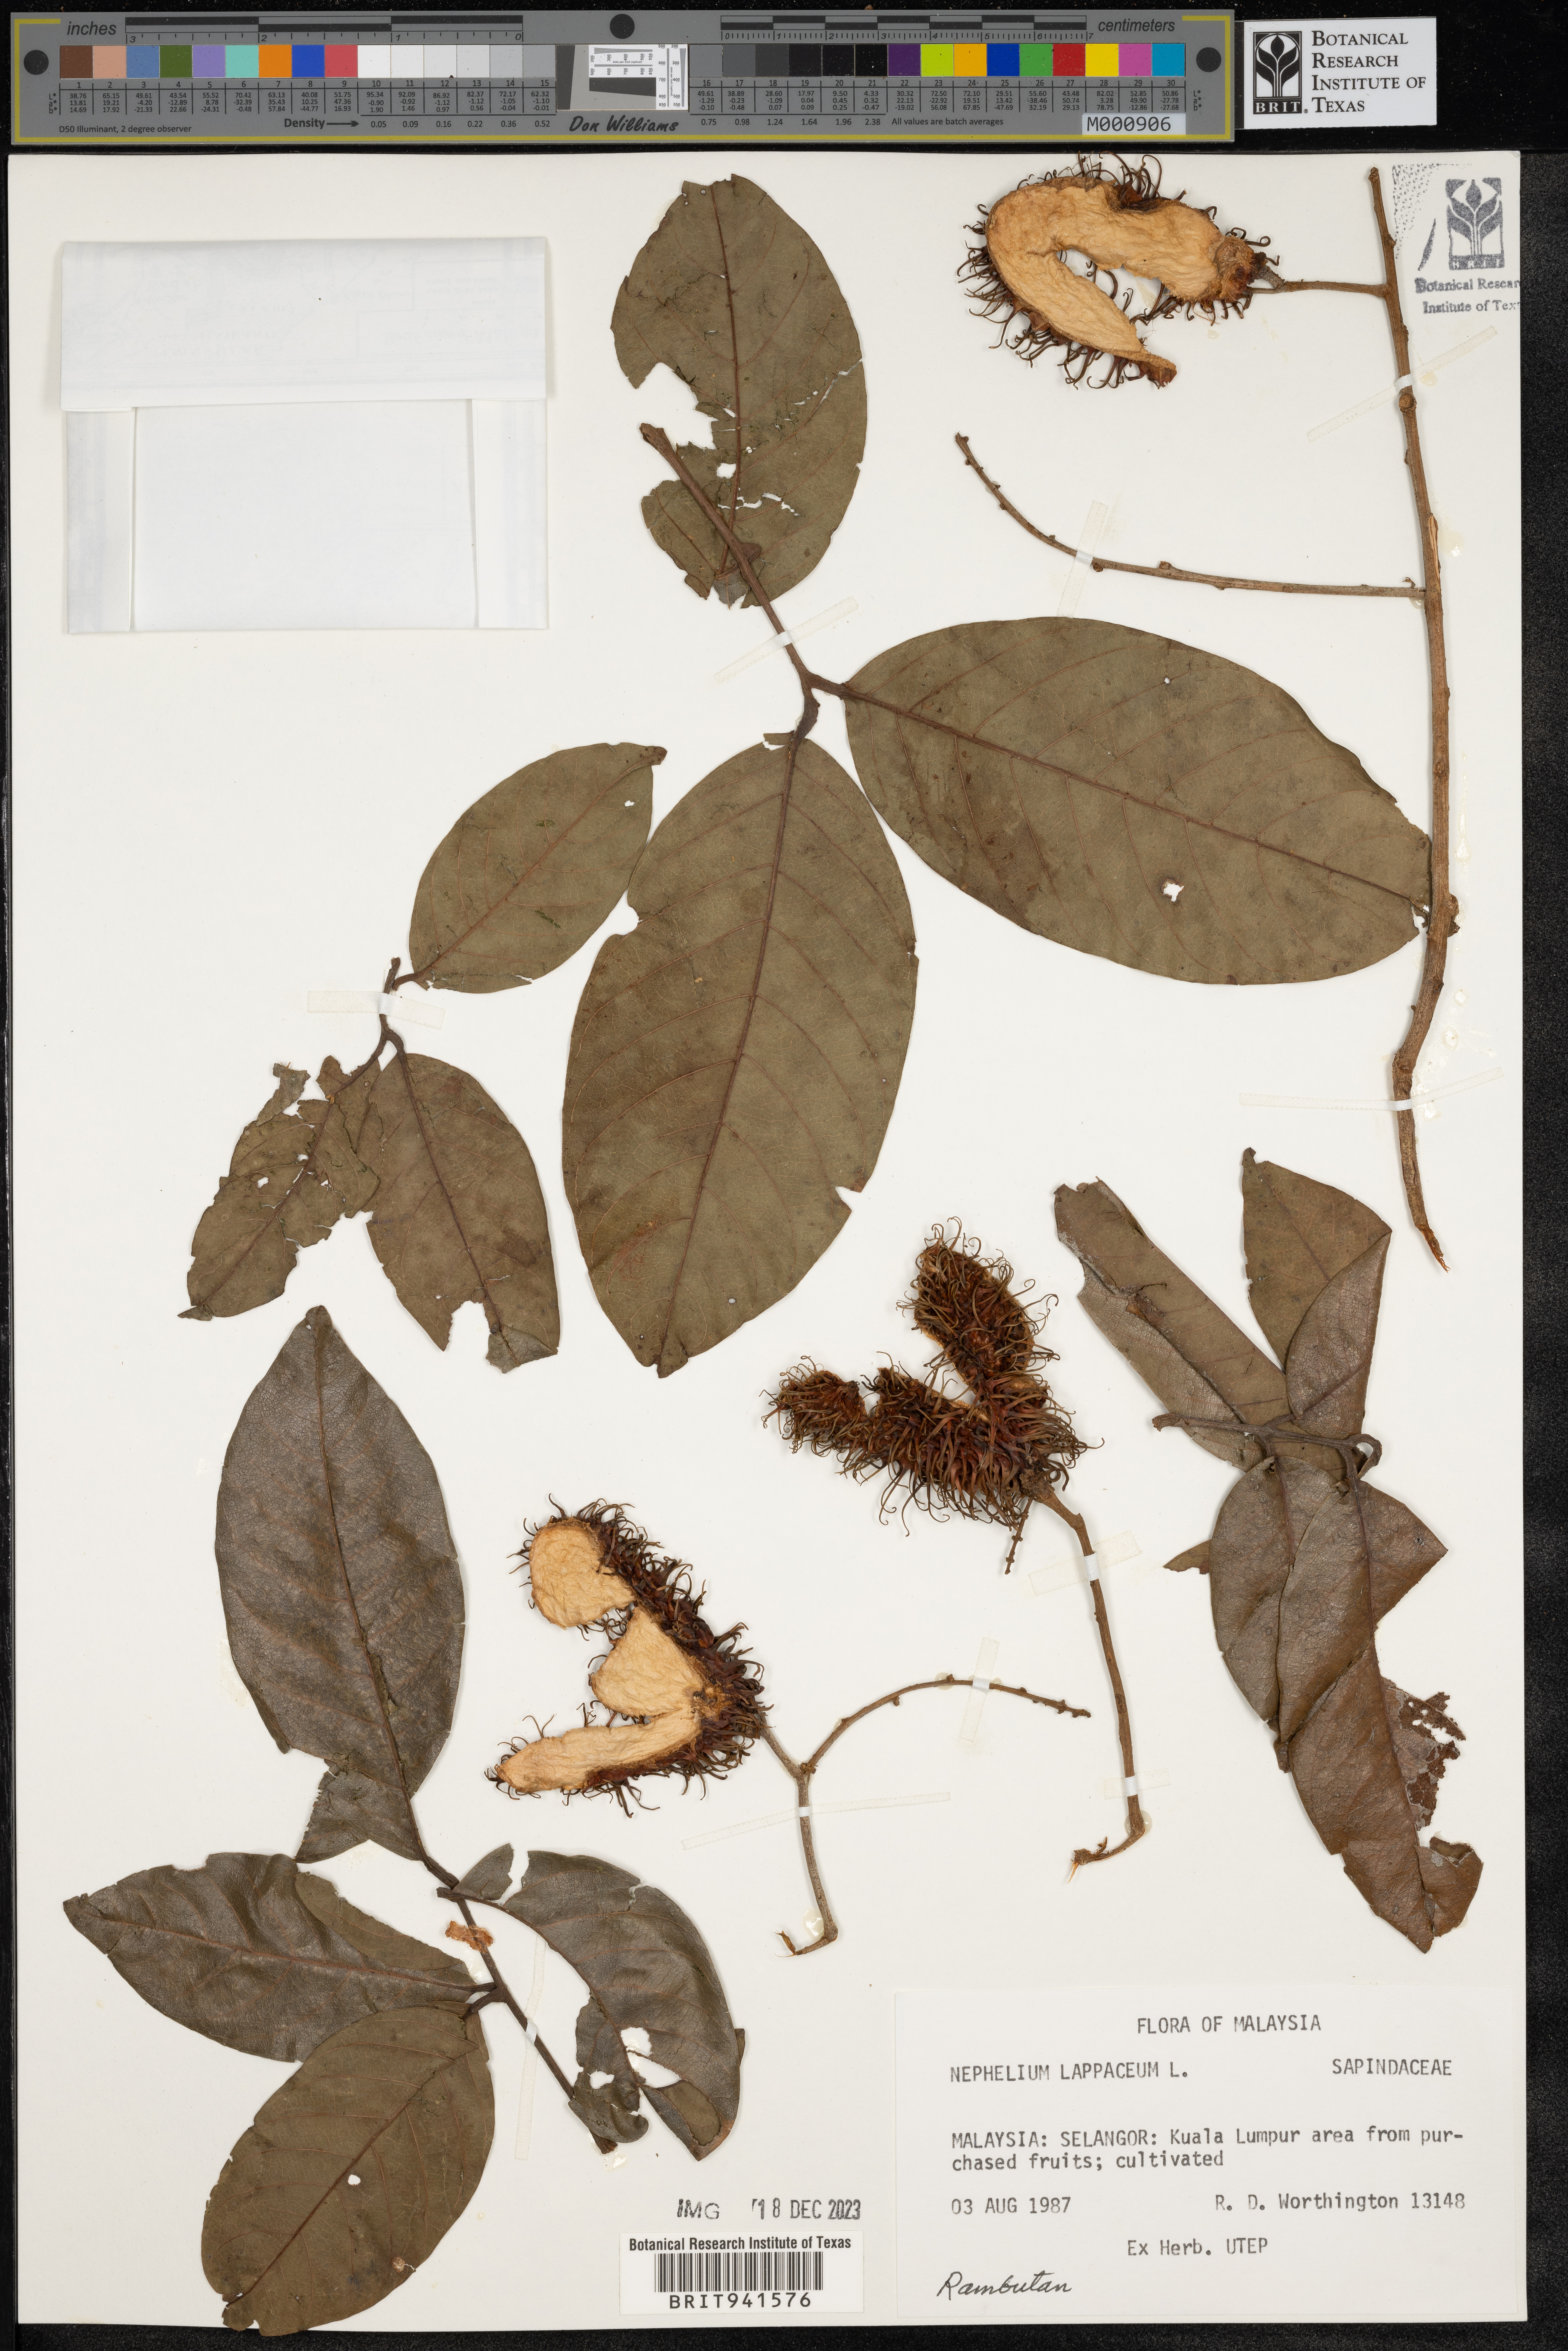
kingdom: Plantae
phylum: Tracheophyta
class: Magnoliopsida
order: Sapindales
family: Sapindaceae
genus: Nephelium
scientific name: Nephelium
